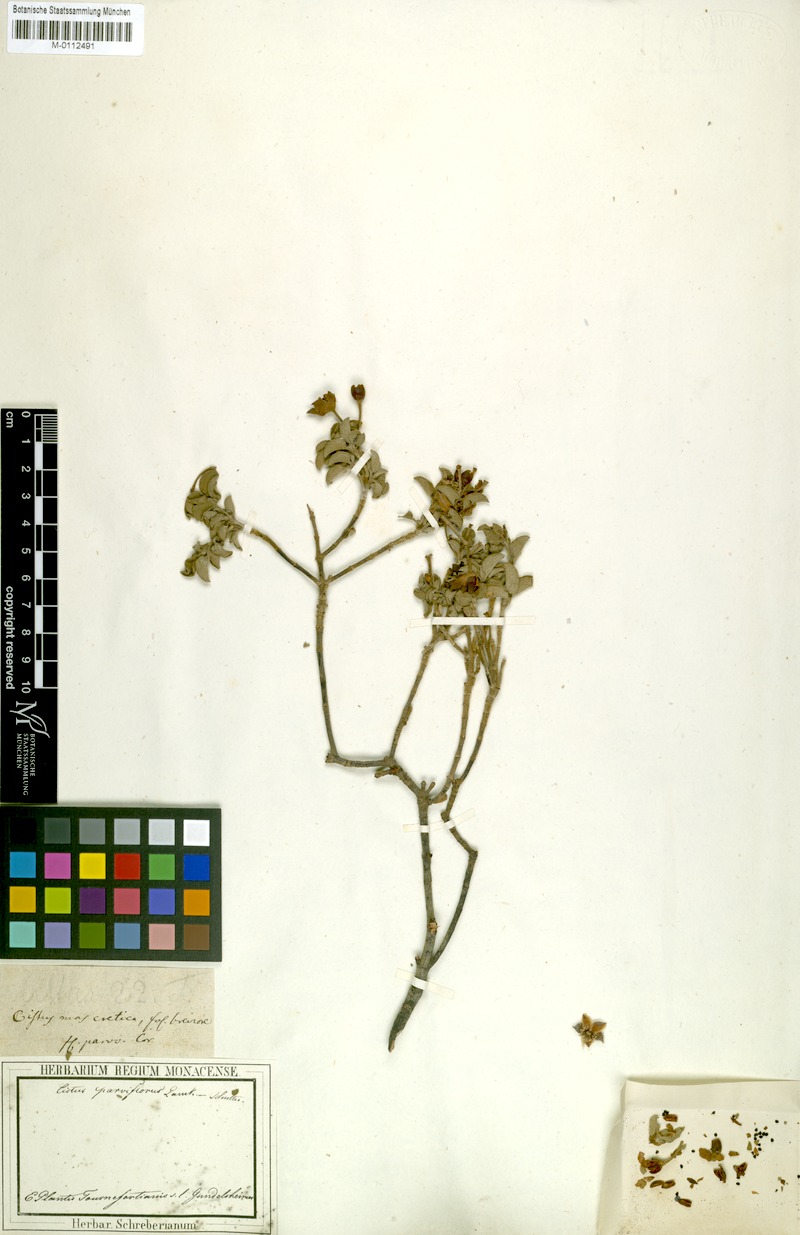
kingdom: Plantae
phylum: Tracheophyta
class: Magnoliopsida
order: Malvales
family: Cistaceae
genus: Cistus
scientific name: Cistus parviflorus
